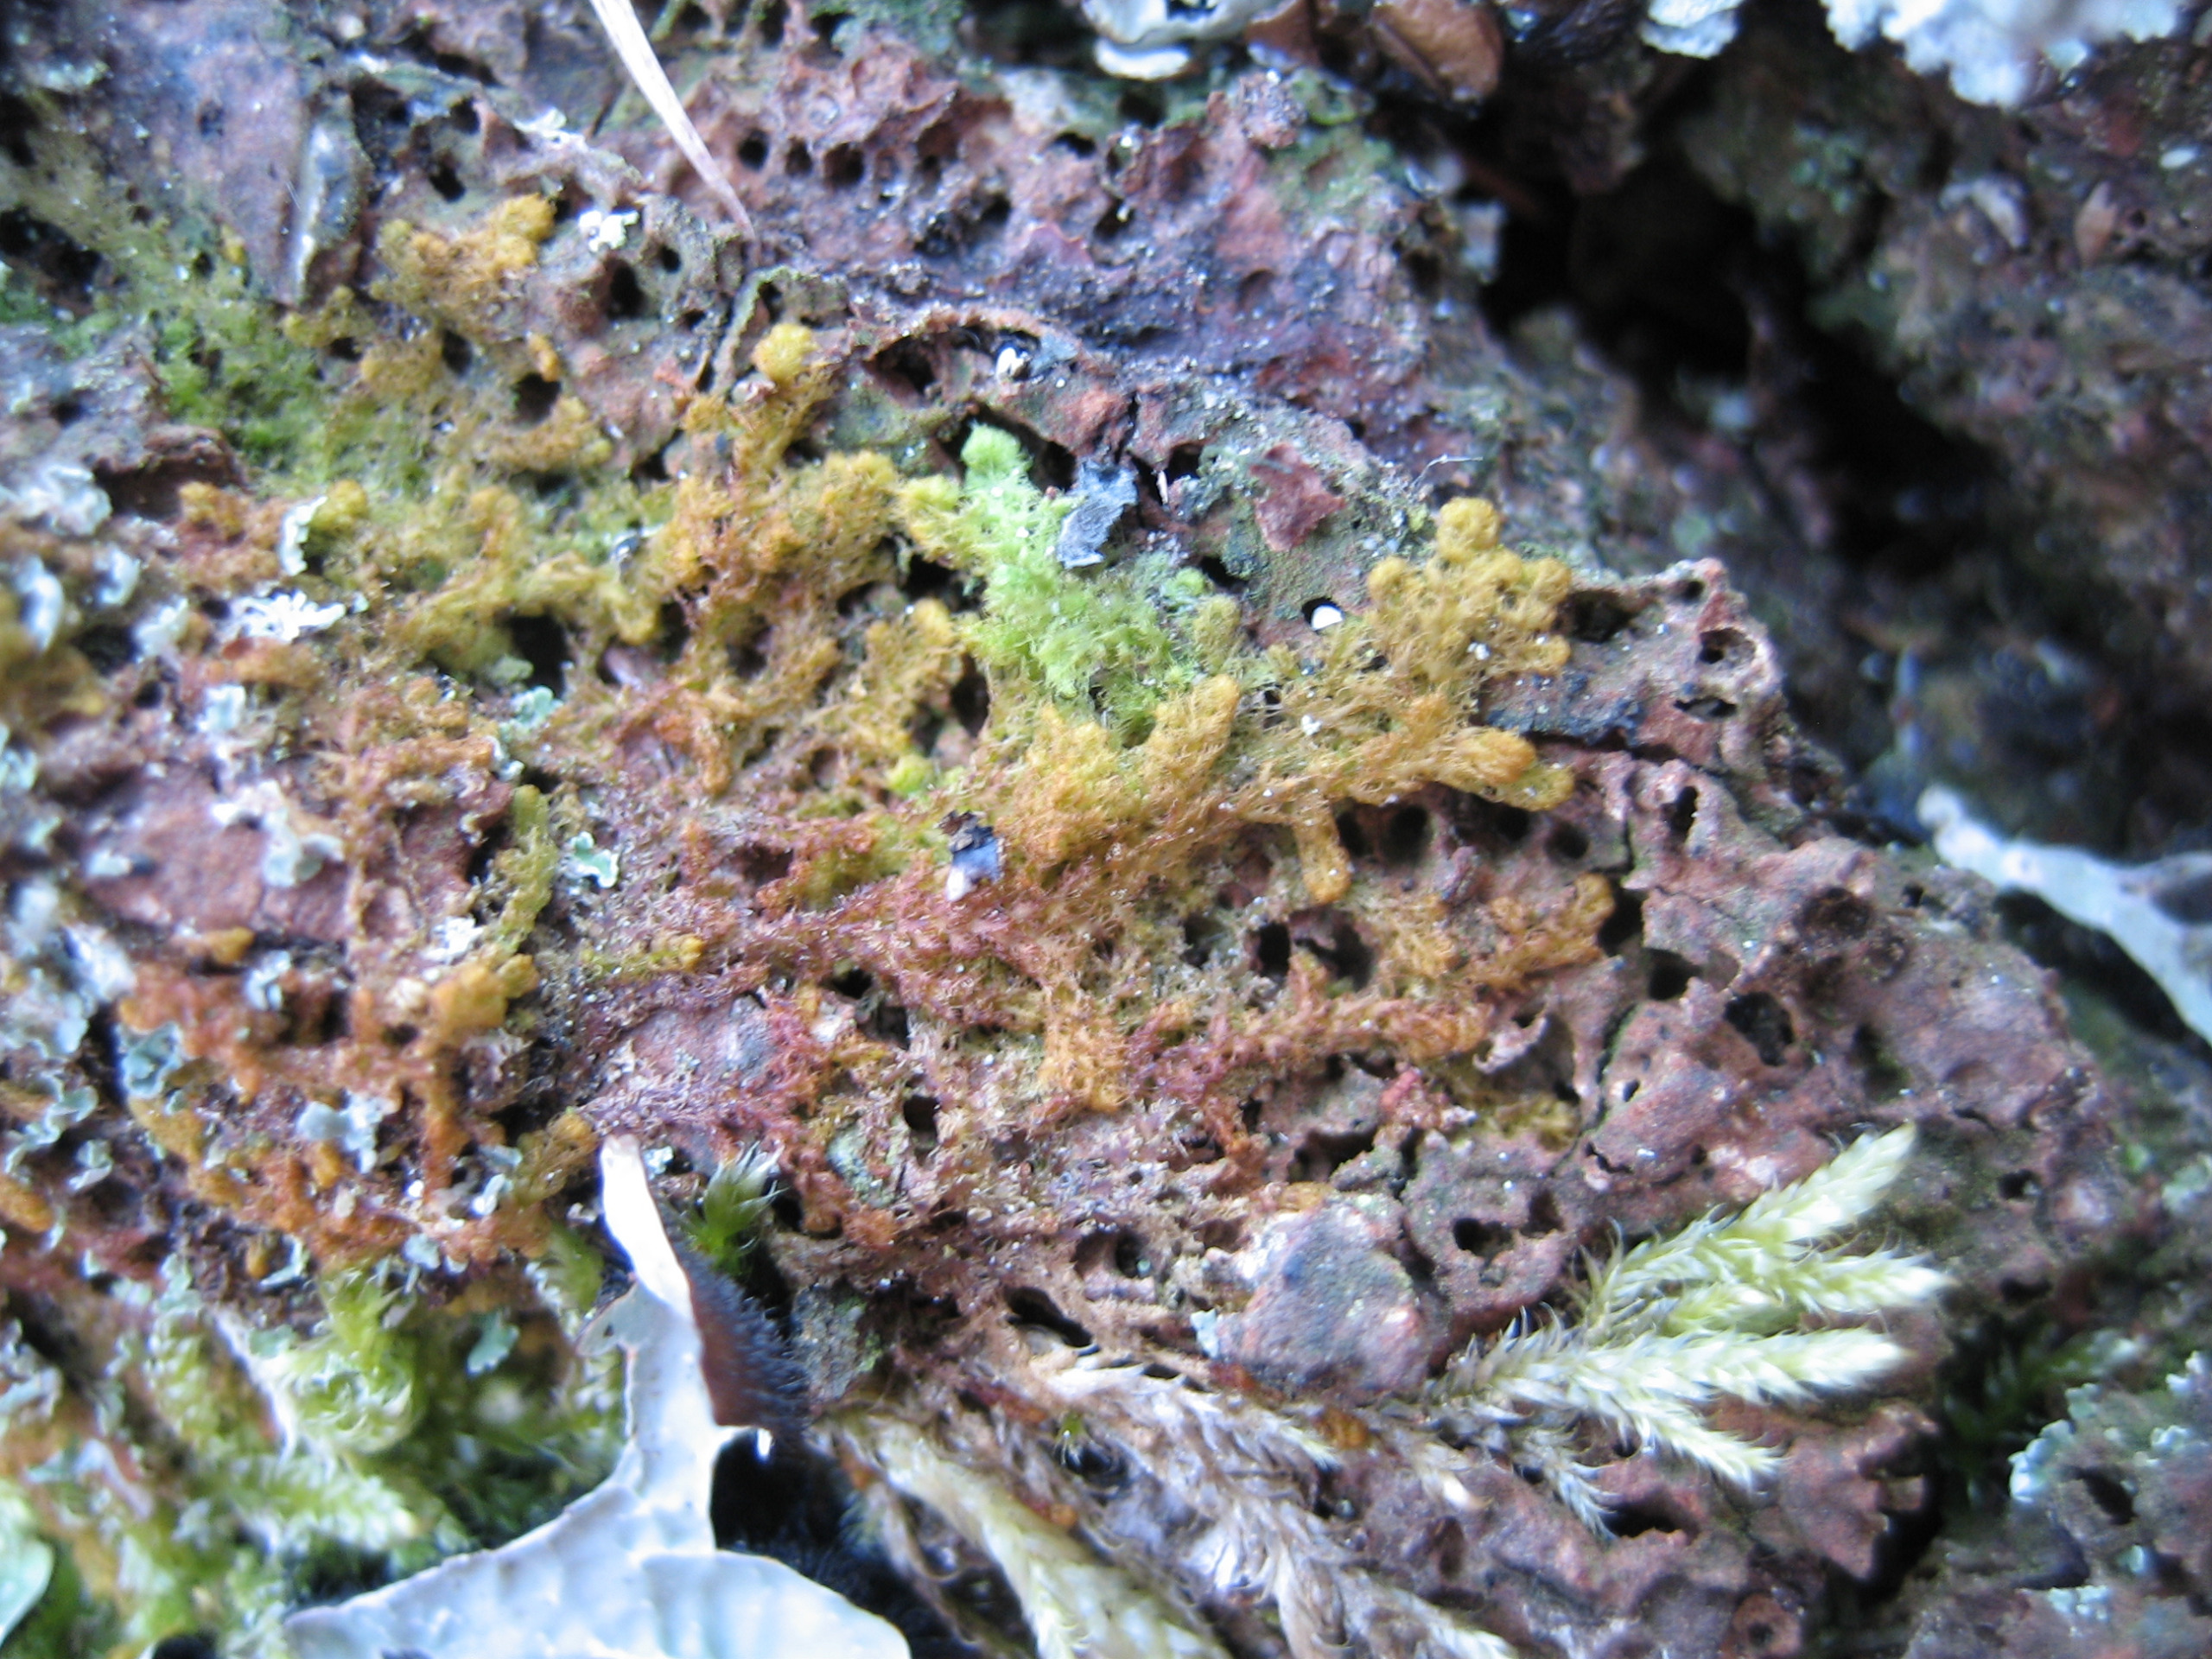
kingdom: Plantae
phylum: Marchantiophyta
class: Jungermanniopsida
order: Ptilidiales
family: Ptilidiaceae
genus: Ptilidium
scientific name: Ptilidium pulcherrimum
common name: Stub-frynsemos
